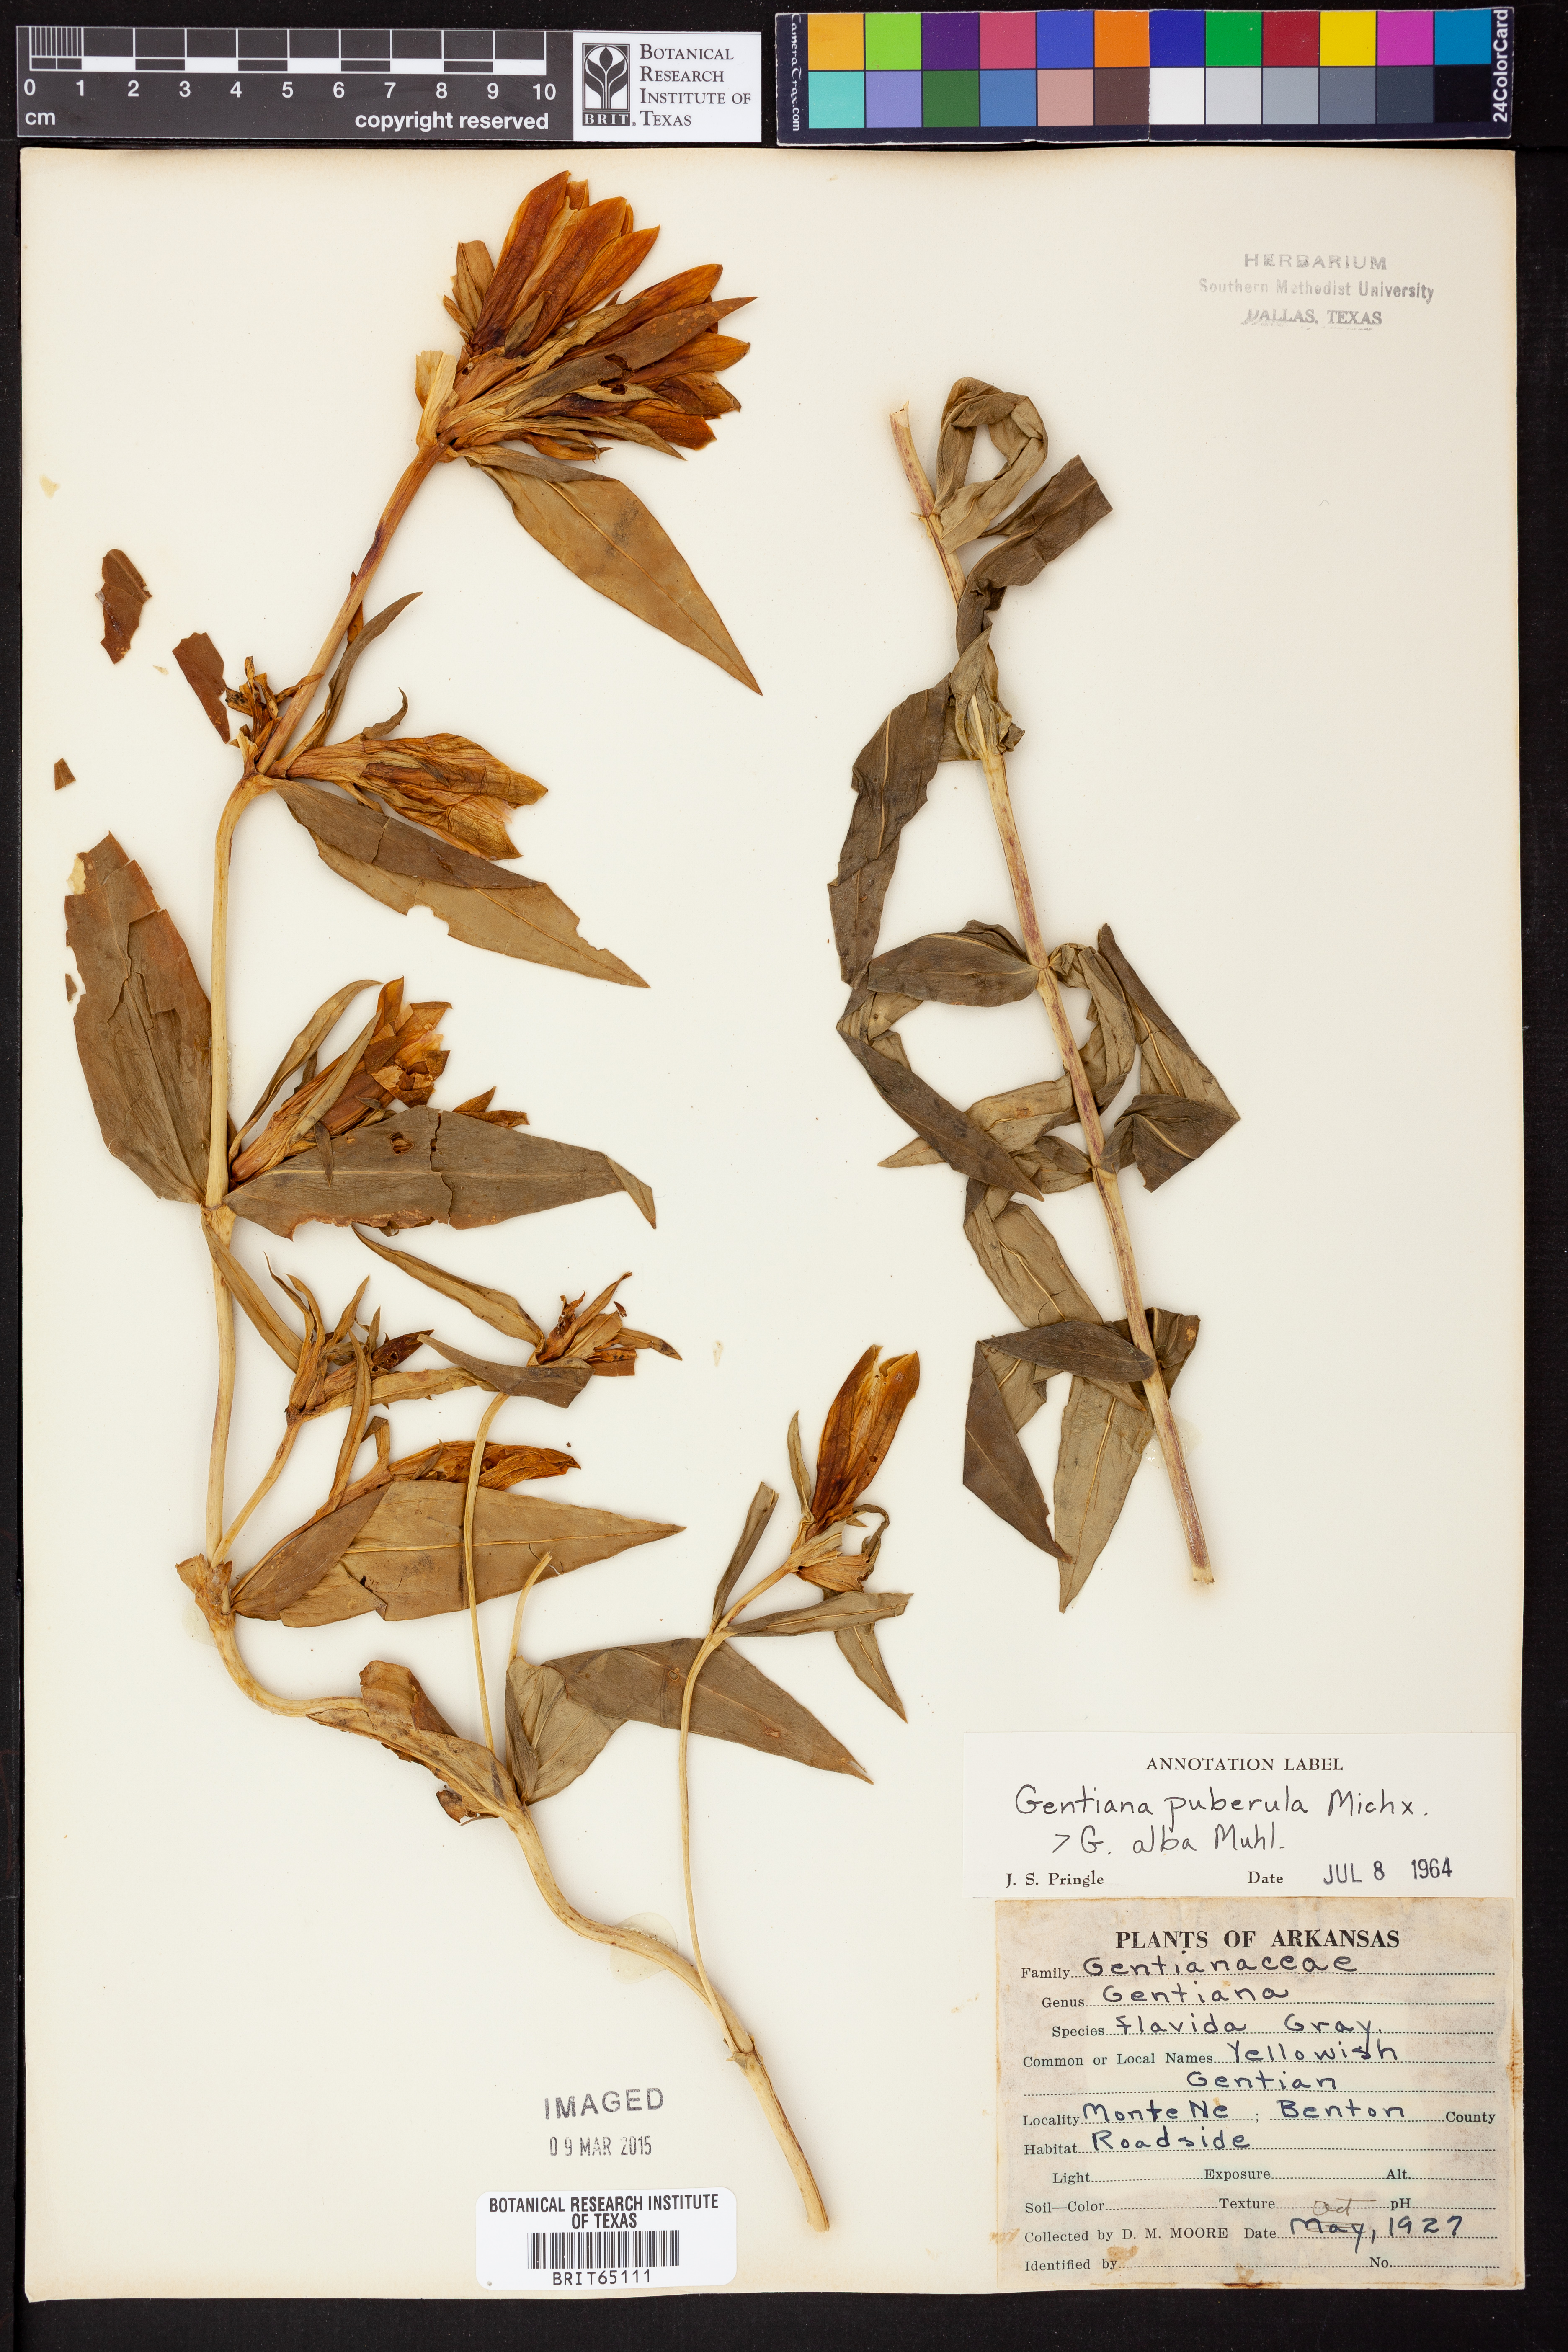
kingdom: Plantae
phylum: Tracheophyta
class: Magnoliopsida
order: Gentianales
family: Gentianaceae
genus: Gentiana
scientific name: Gentiana puberulenta
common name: Downy gentian
